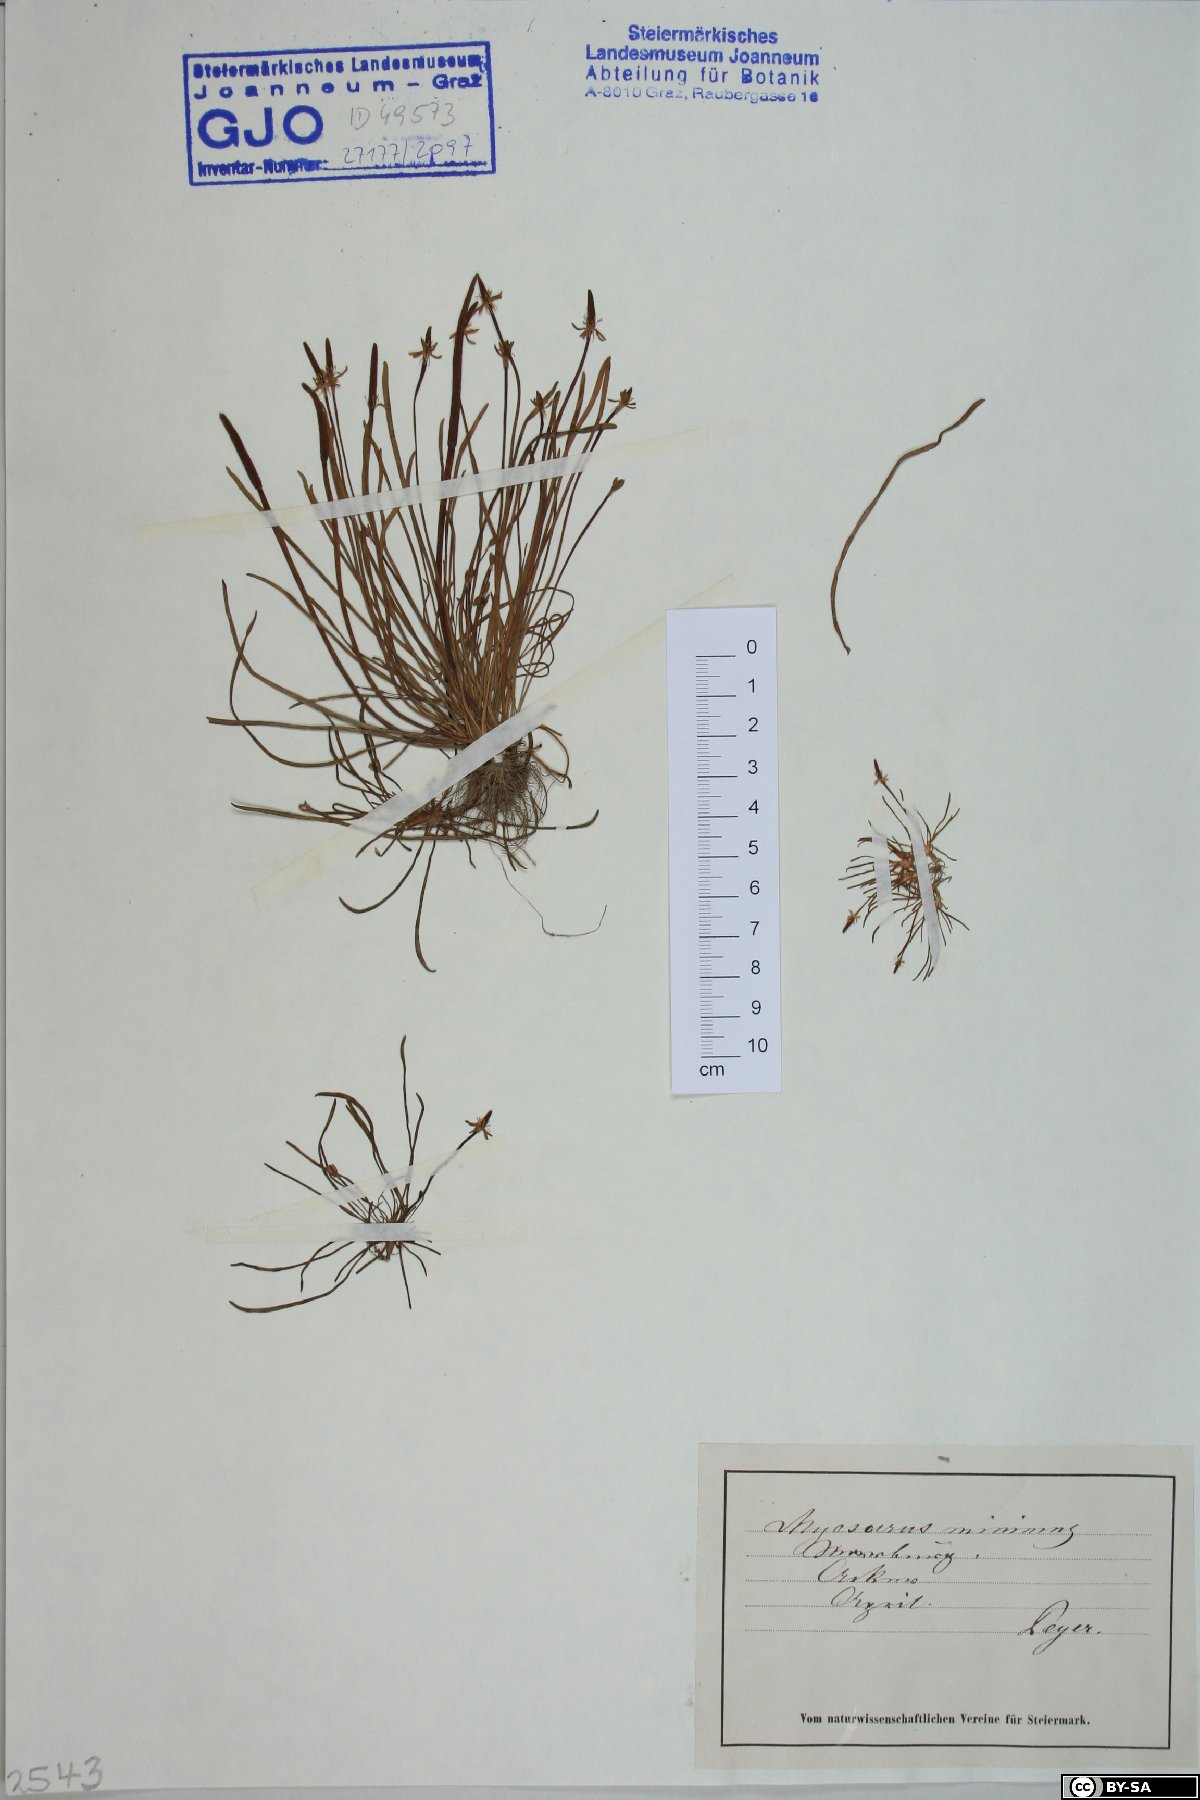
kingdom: Plantae
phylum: Tracheophyta
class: Magnoliopsida
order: Ranunculales
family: Ranunculaceae
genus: Myosurus
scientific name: Myosurus minimus
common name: Mousetail
